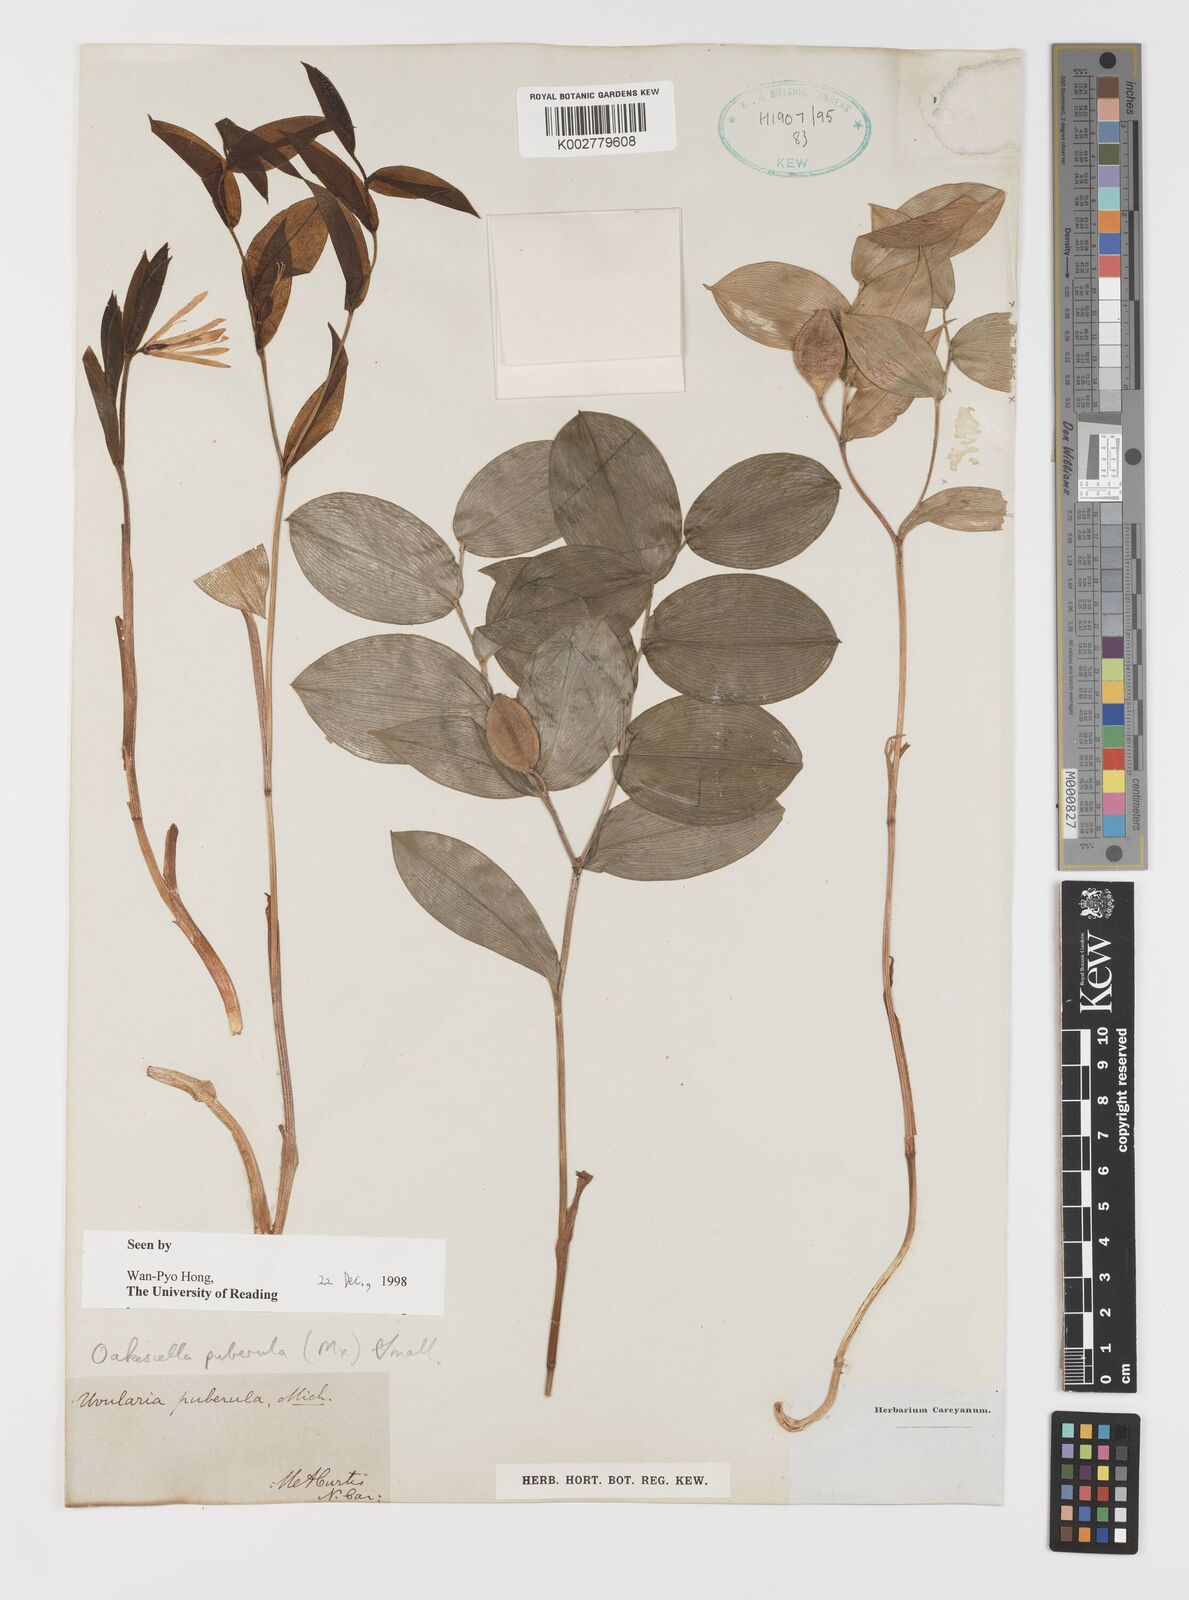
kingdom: Plantae
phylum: Tracheophyta
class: Liliopsida
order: Liliales
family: Colchicaceae
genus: Uvularia
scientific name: Uvularia puberula
